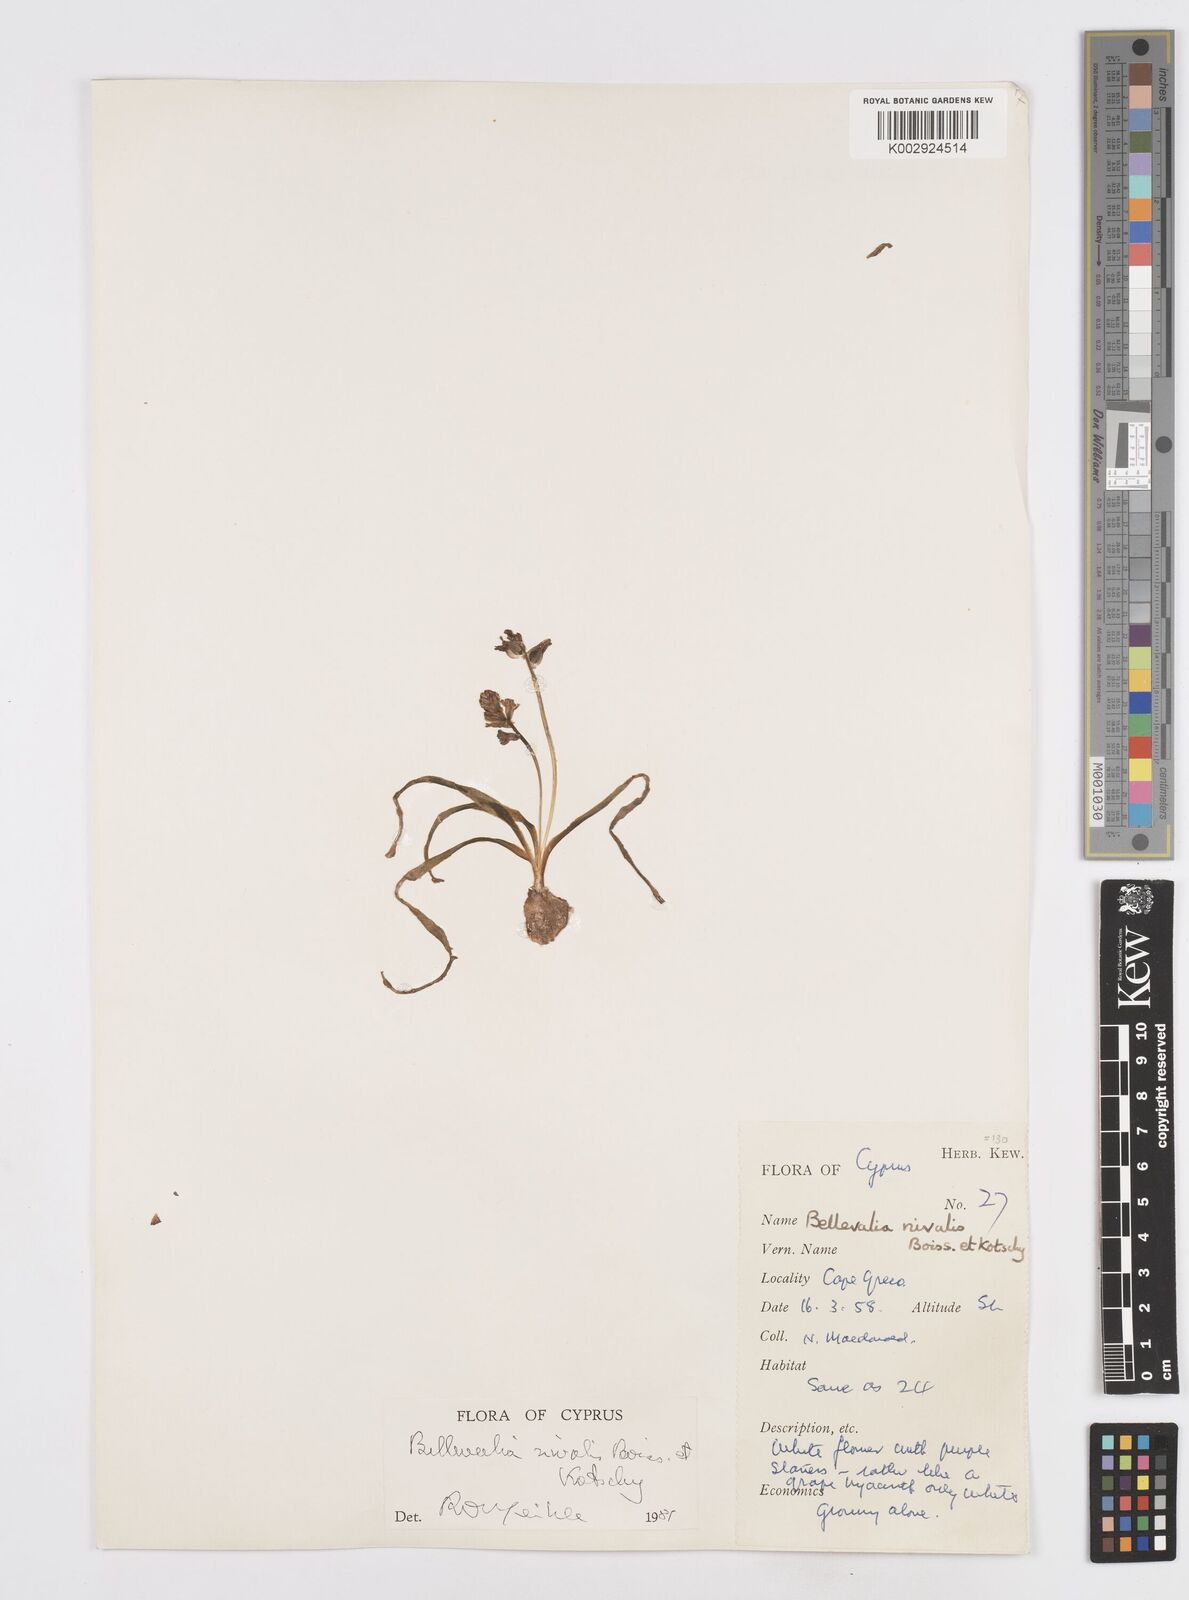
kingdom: Plantae
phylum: Tracheophyta
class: Liliopsida
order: Asparagales
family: Asparagaceae
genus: Bellevalia
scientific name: Bellevalia nivalis
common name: Snow bellevalia
